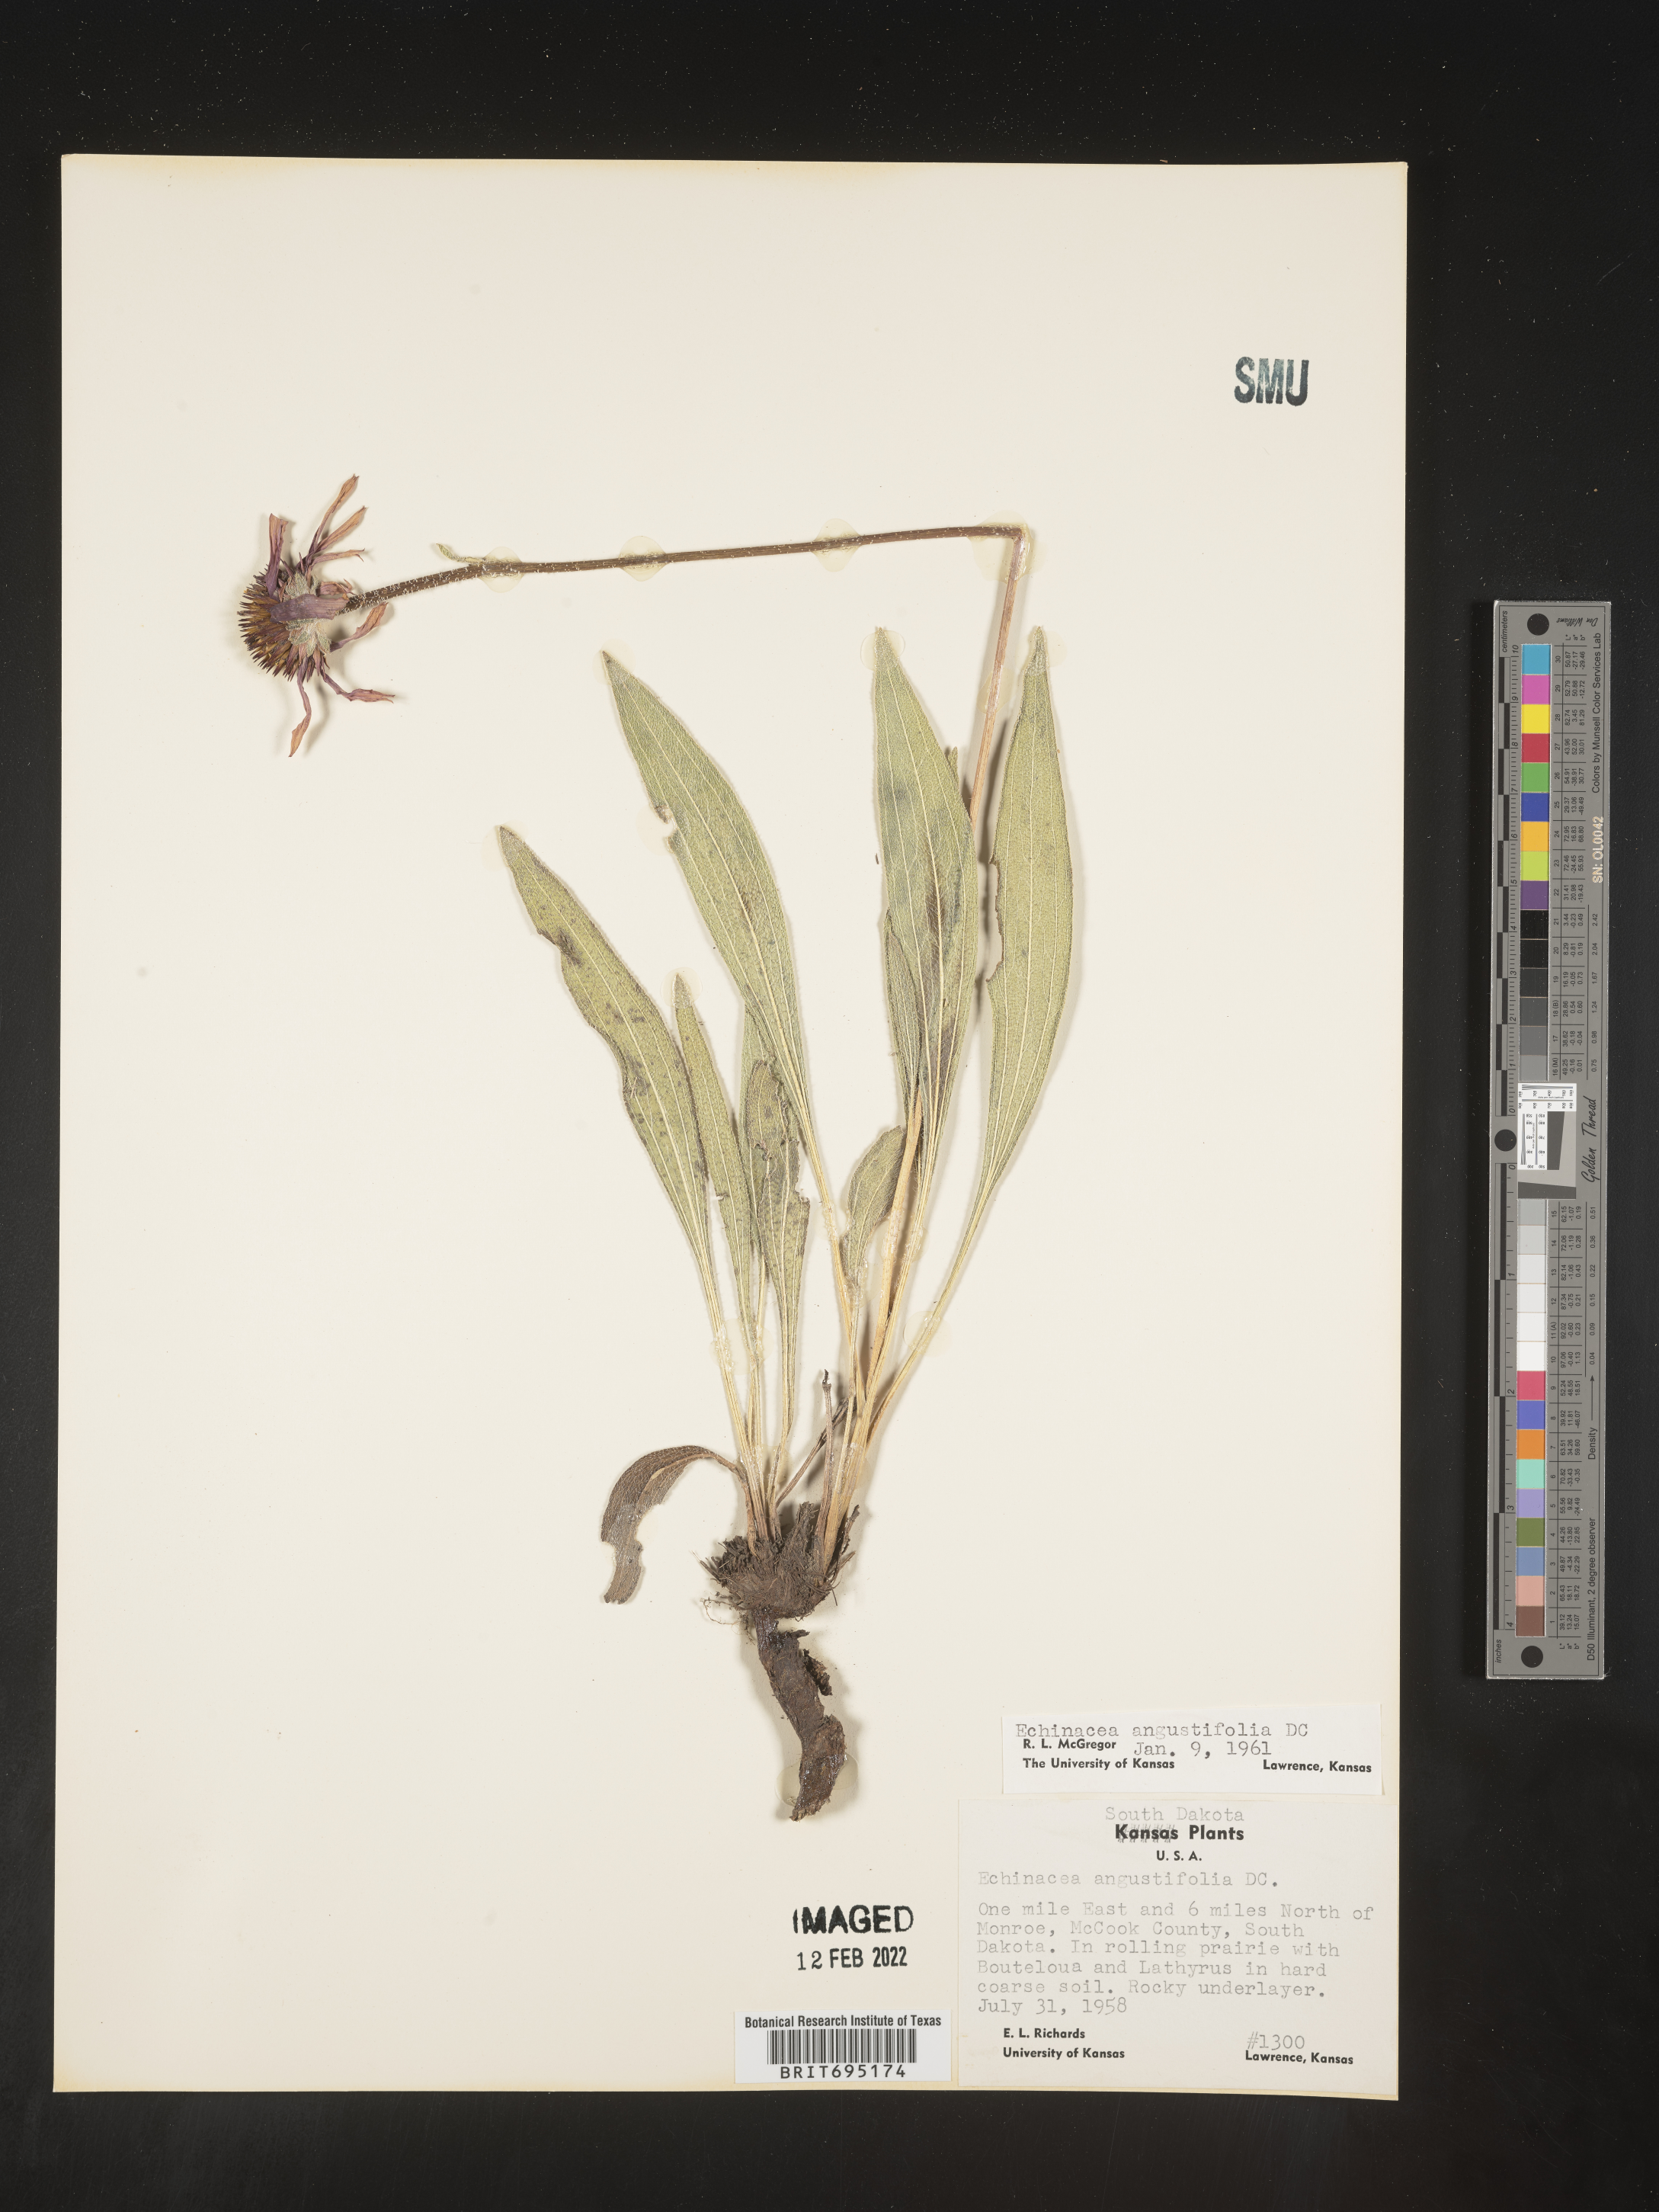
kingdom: Plantae
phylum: Tracheophyta
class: Magnoliopsida
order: Asterales
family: Asteraceae
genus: Echinacea
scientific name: Echinacea angustifolia
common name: Black-sampson echinacea
